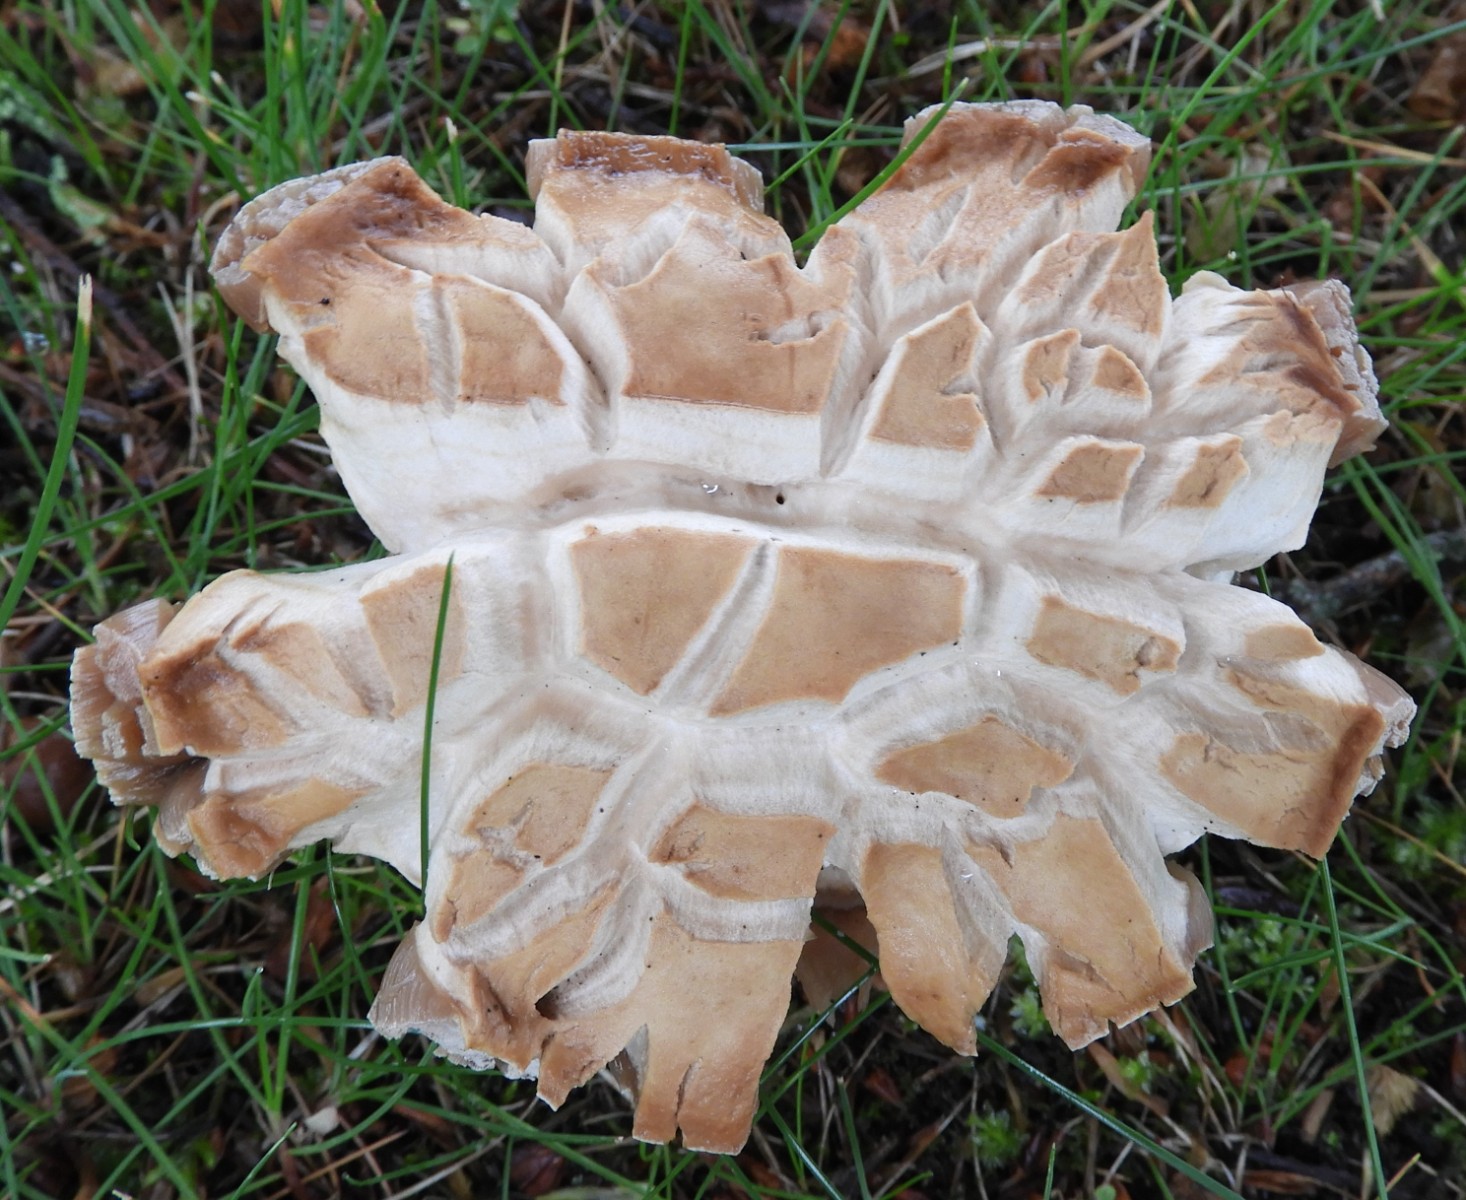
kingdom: Fungi
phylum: Basidiomycota
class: Agaricomycetes
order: Boletales
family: Boletaceae
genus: Boletus
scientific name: Boletus reticulatus
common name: sommer-rørhat
